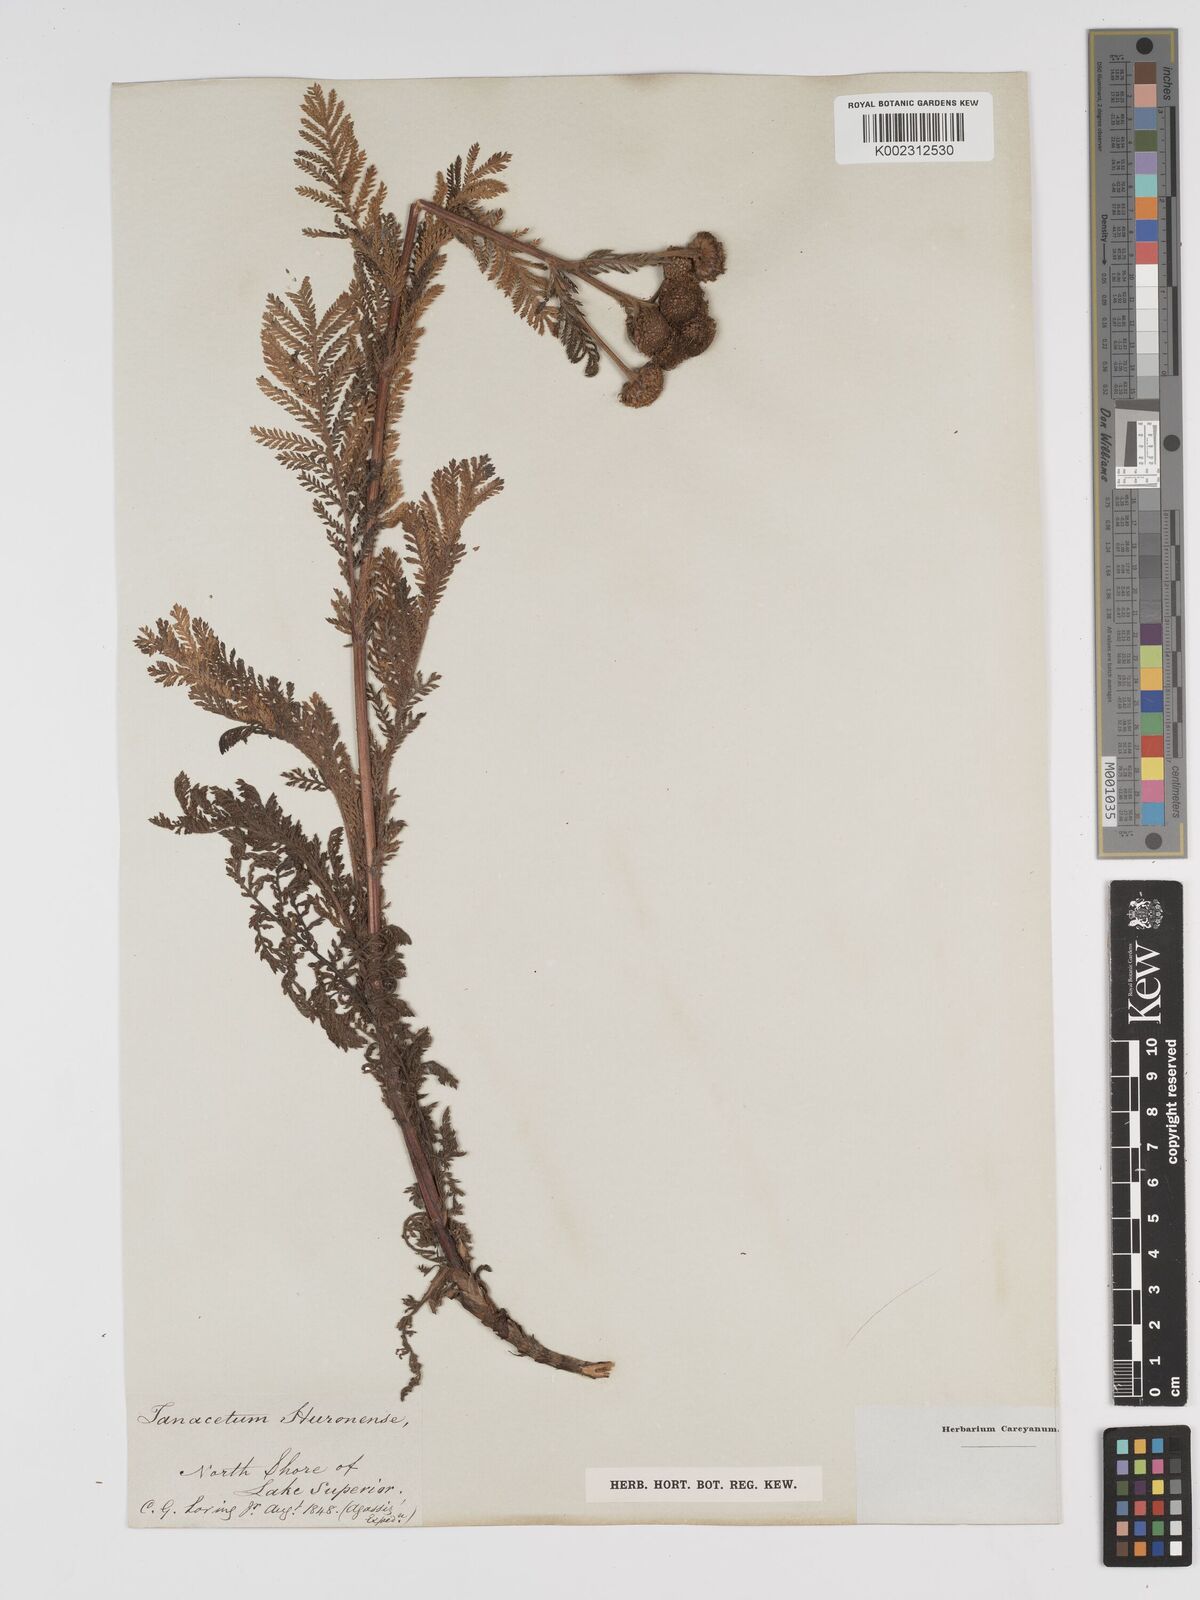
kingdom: Plantae
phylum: Tracheophyta
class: Magnoliopsida
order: Asterales
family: Asteraceae
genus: Tanacetum
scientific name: Tanacetum bipinnatum
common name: Dwarf tansy
